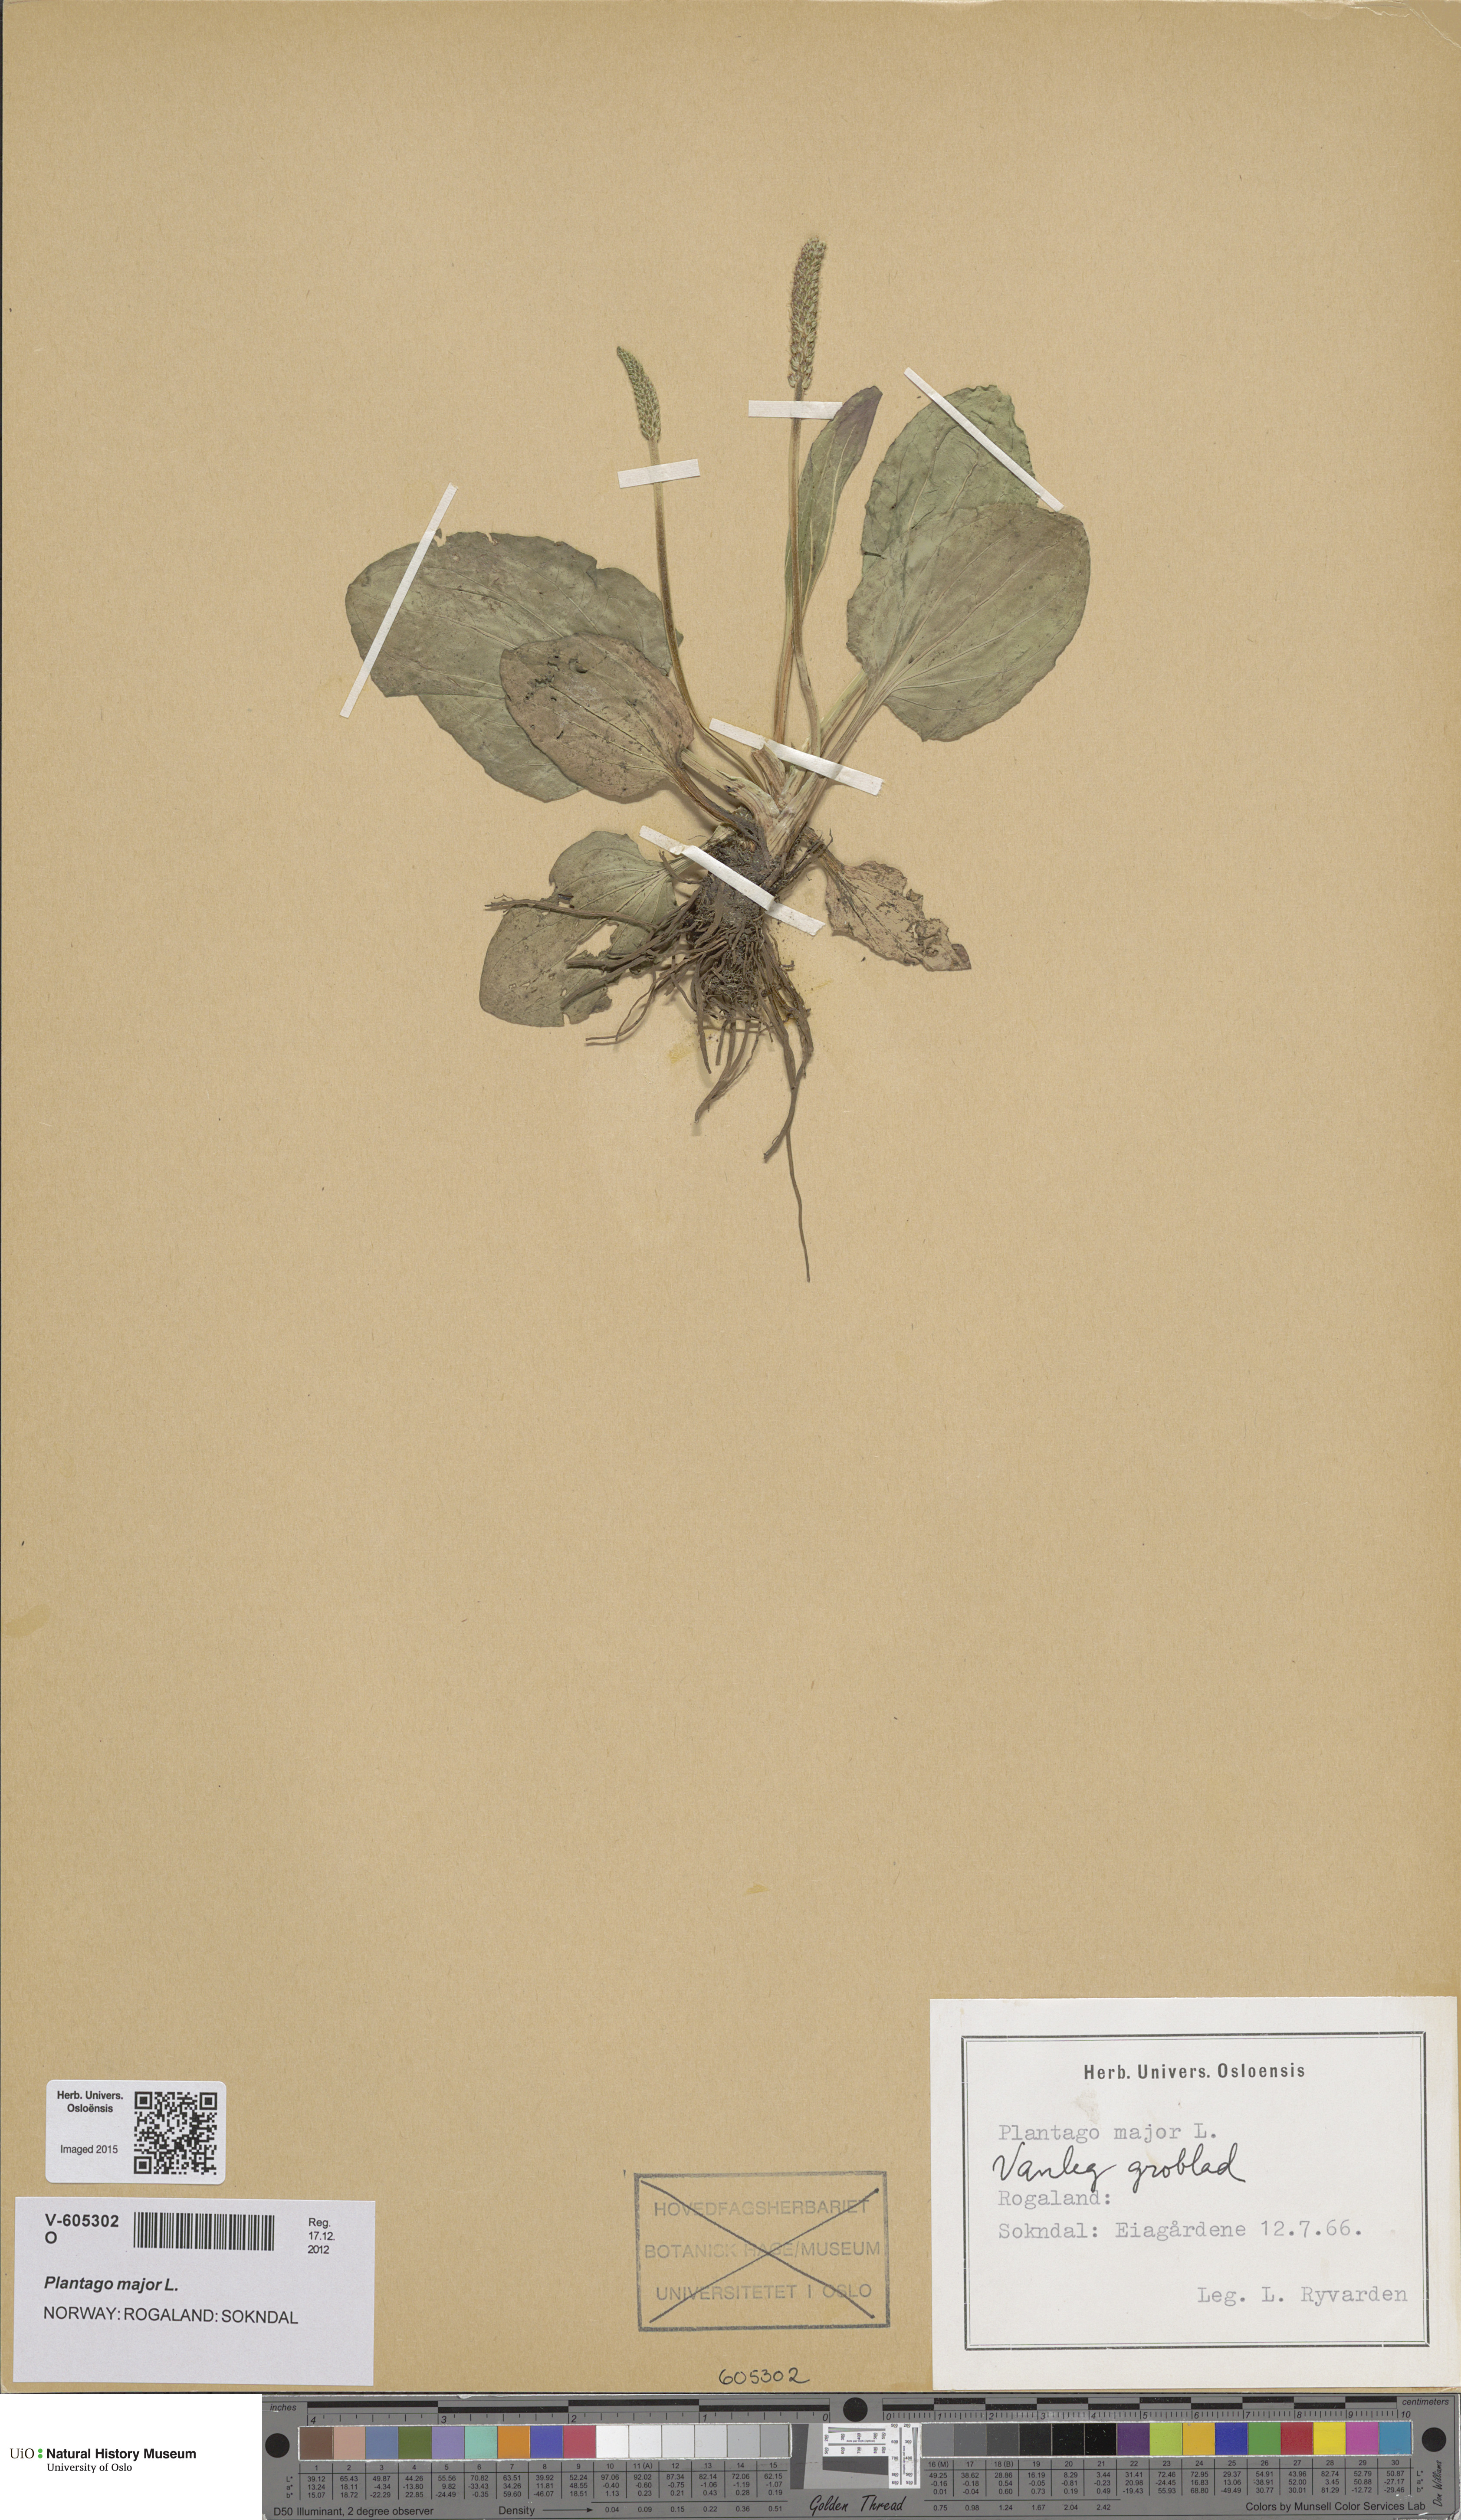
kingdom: Plantae
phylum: Tracheophyta
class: Magnoliopsida
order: Lamiales
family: Plantaginaceae
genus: Plantago
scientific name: Plantago major
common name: Common plantain
